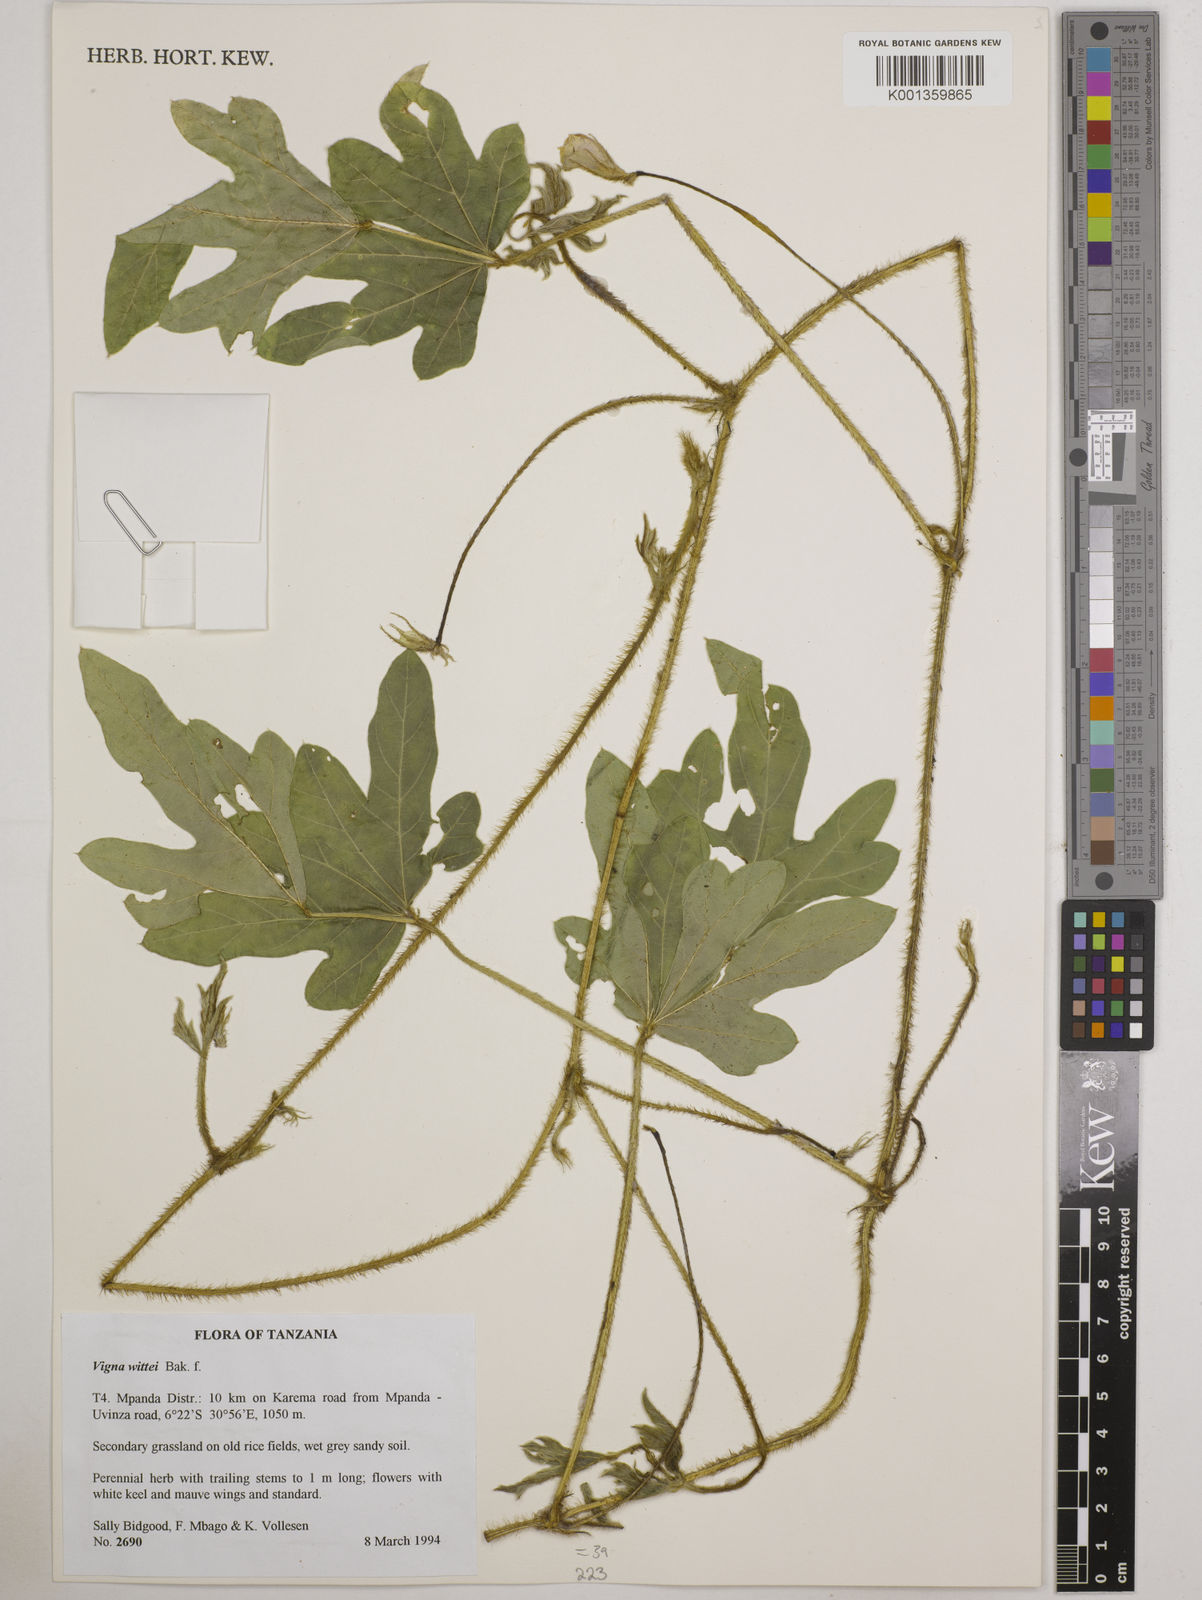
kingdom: Plantae
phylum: Tracheophyta
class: Magnoliopsida
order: Fabales
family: Fabaceae
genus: Vigna
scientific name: Vigna wittei
